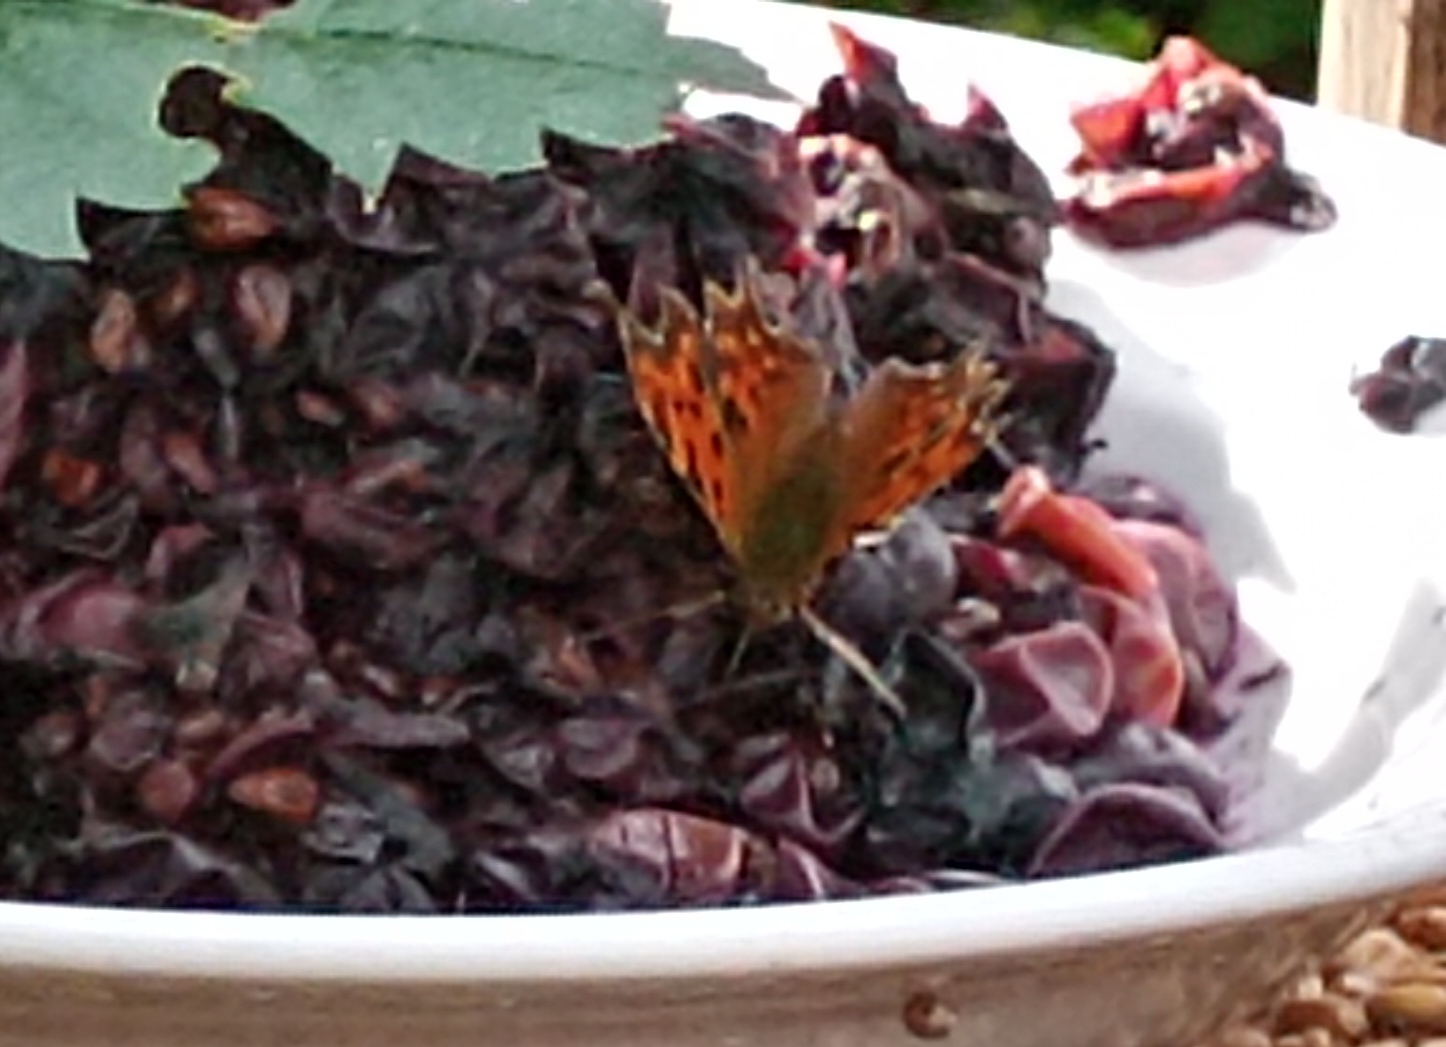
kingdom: Animalia
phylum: Arthropoda
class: Insecta
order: Lepidoptera
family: Nymphalidae
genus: Polygonia
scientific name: Polygonia c-album
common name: Det hvide C
